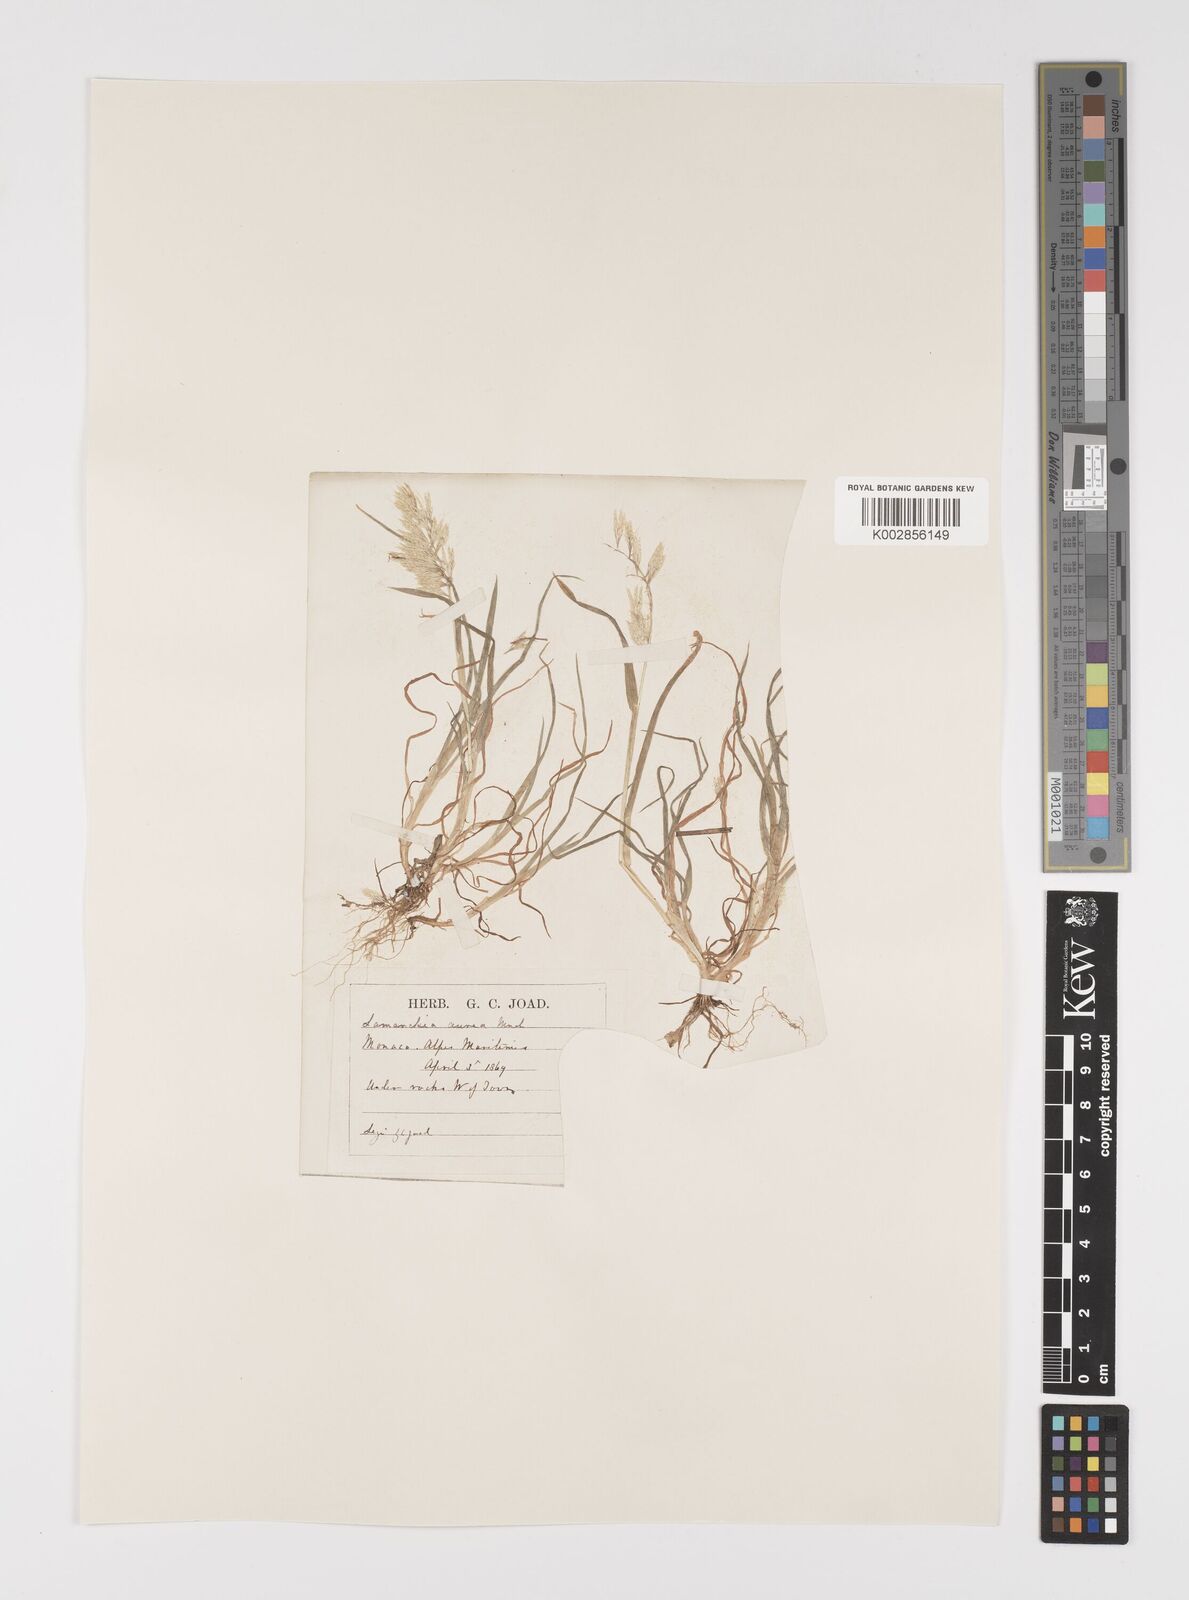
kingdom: Plantae
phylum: Tracheophyta
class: Liliopsida
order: Poales
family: Poaceae
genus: Lamarckia
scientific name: Lamarckia aurea
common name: Golden dog's-tail
